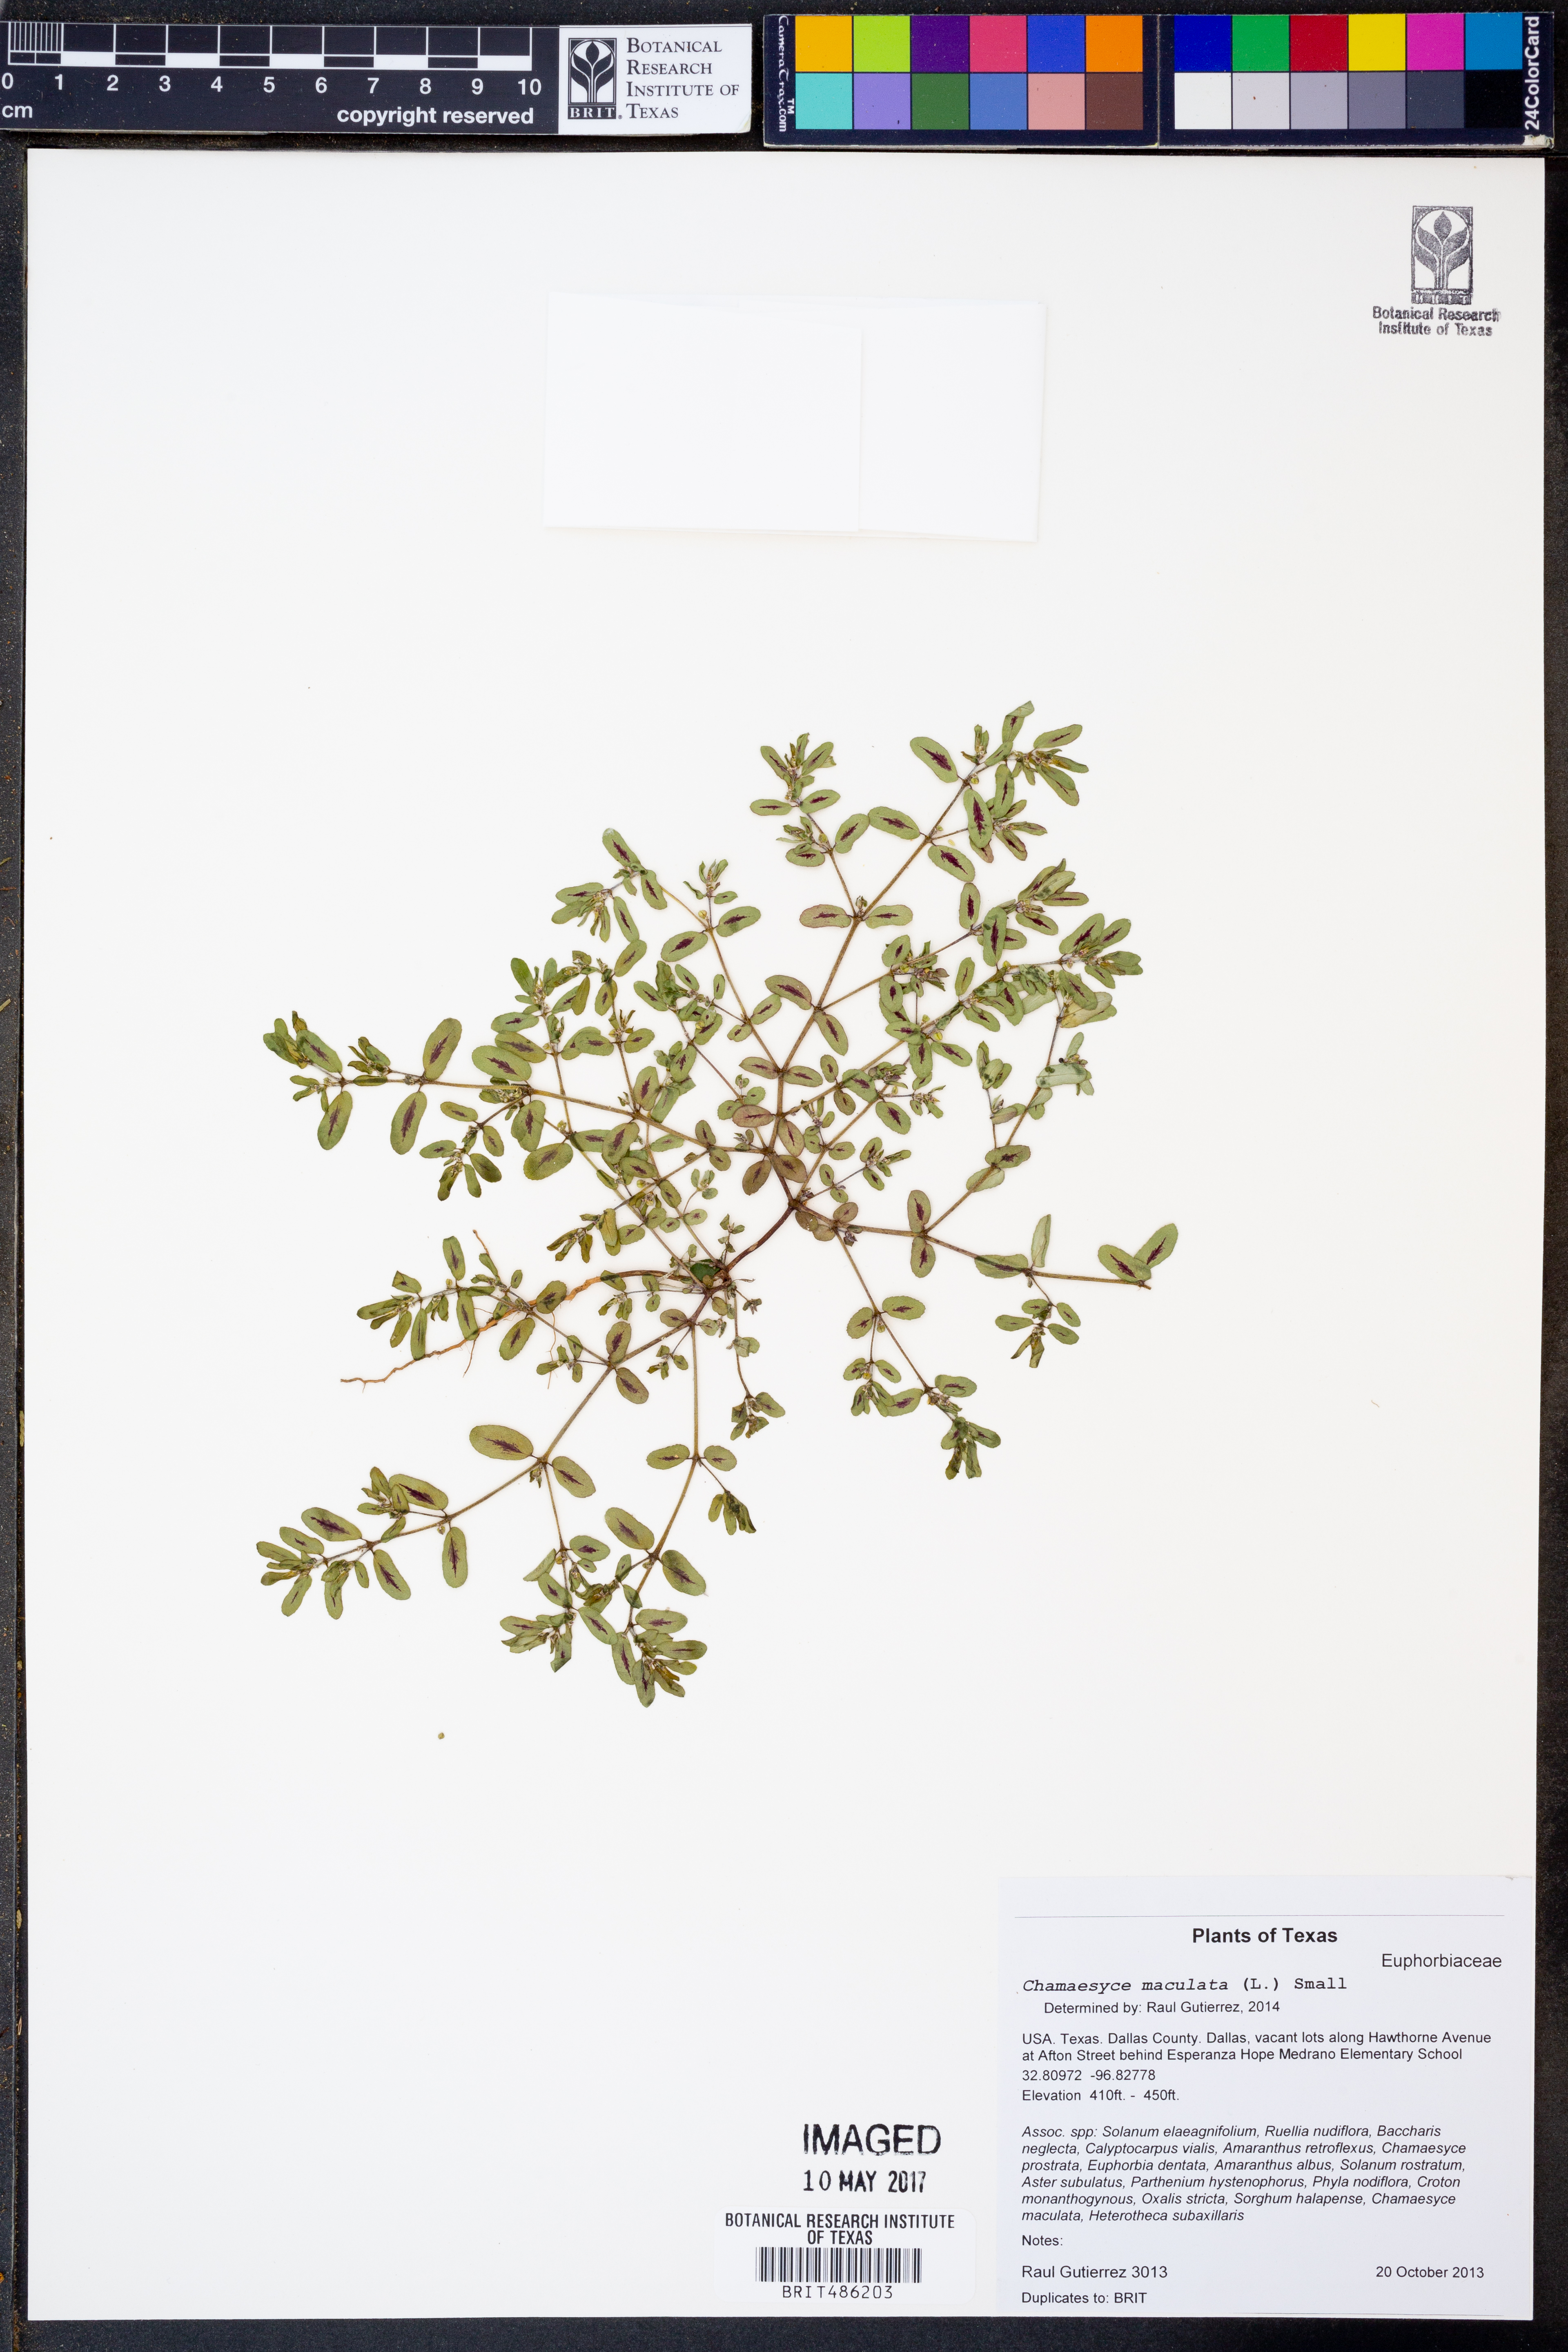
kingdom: Plantae
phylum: Tracheophyta
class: Magnoliopsida
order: Malpighiales
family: Euphorbiaceae
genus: Euphorbia
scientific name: Euphorbia maculata
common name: Spotted spurge
